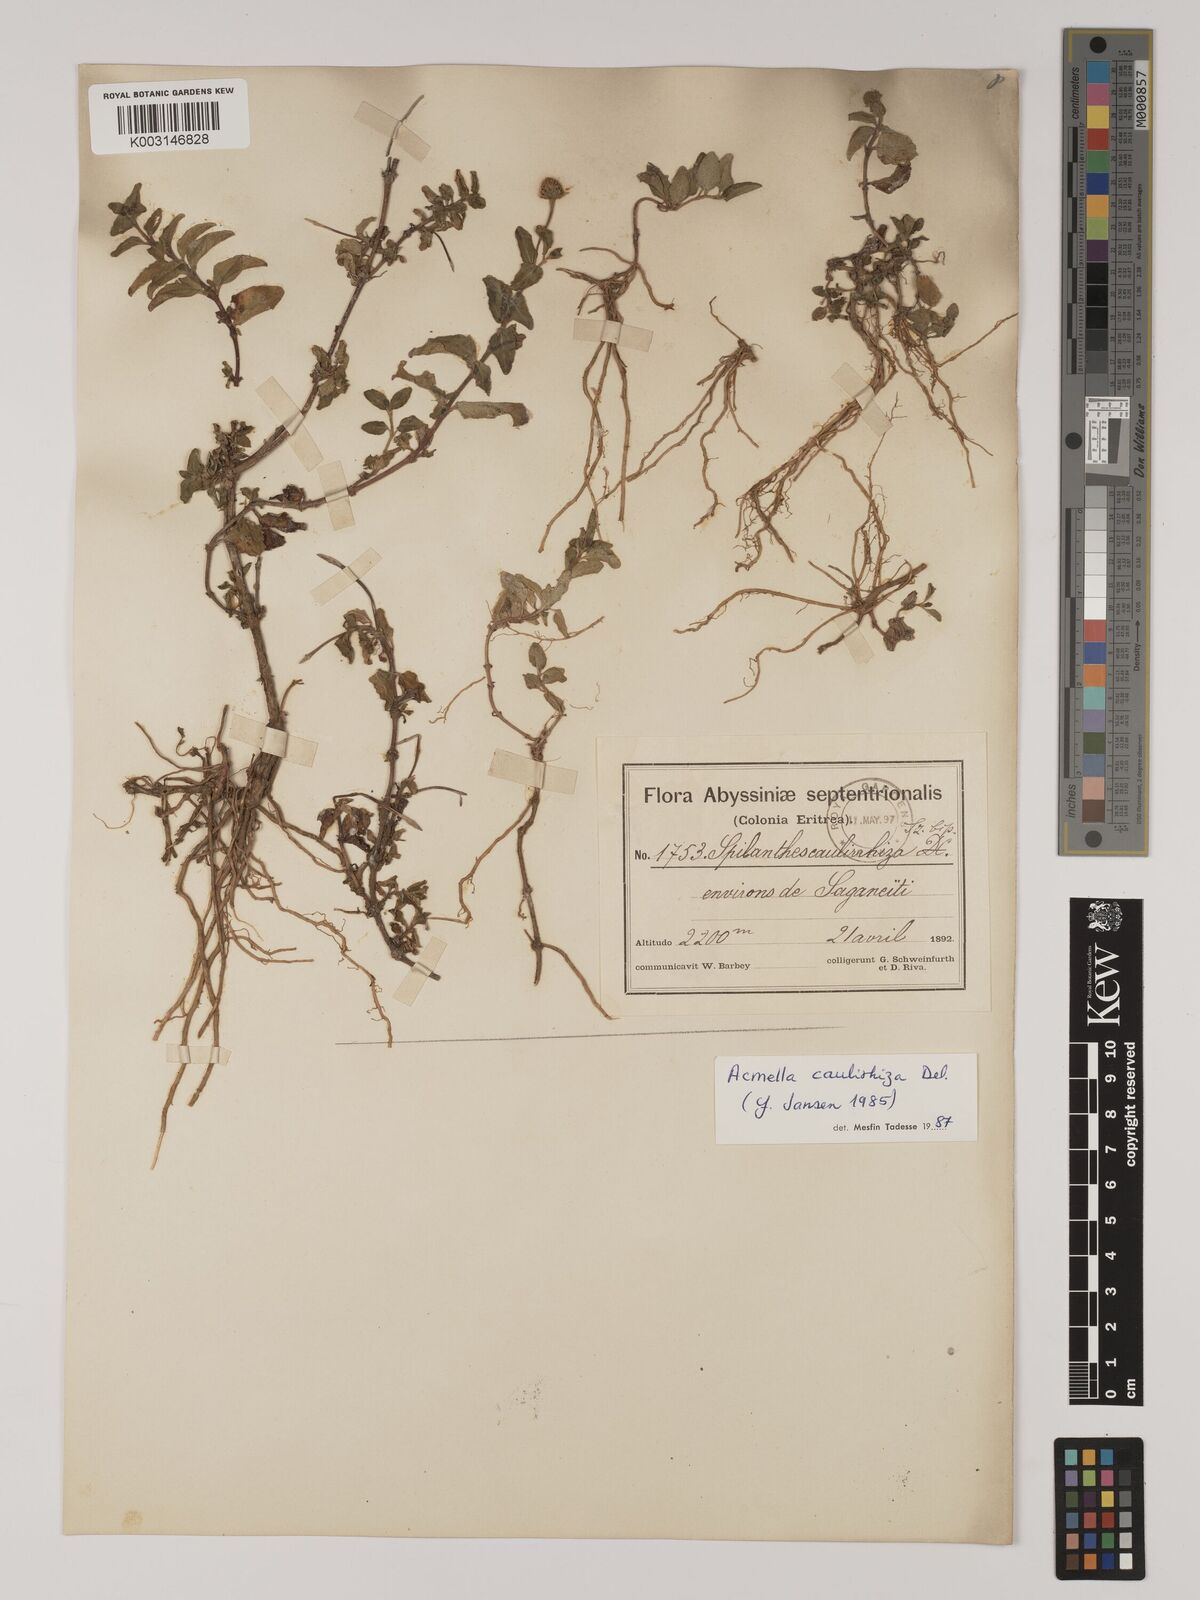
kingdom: Plantae
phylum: Tracheophyta
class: Magnoliopsida
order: Asterales
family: Asteraceae
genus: Acmella
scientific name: Acmella caulirhiza
